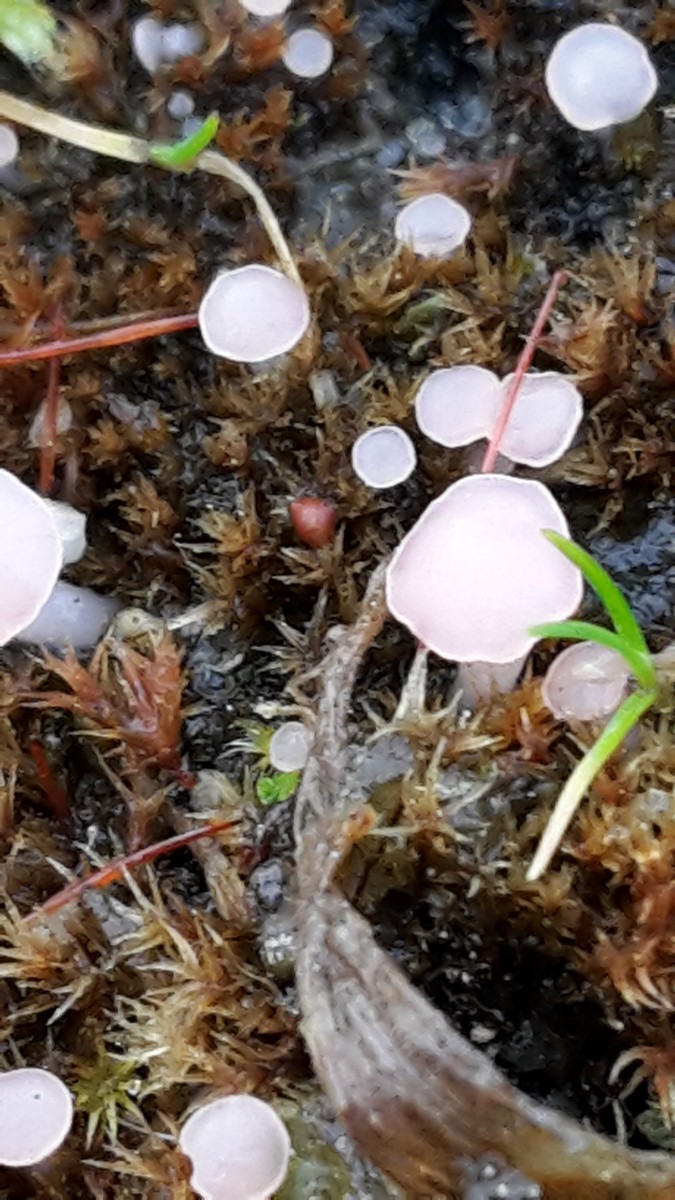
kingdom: Fungi
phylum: Ascomycota
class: Leotiomycetes
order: Helotiales
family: Hyaloscyphaceae
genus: Roseodiscus
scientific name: Roseodiscus formosus
